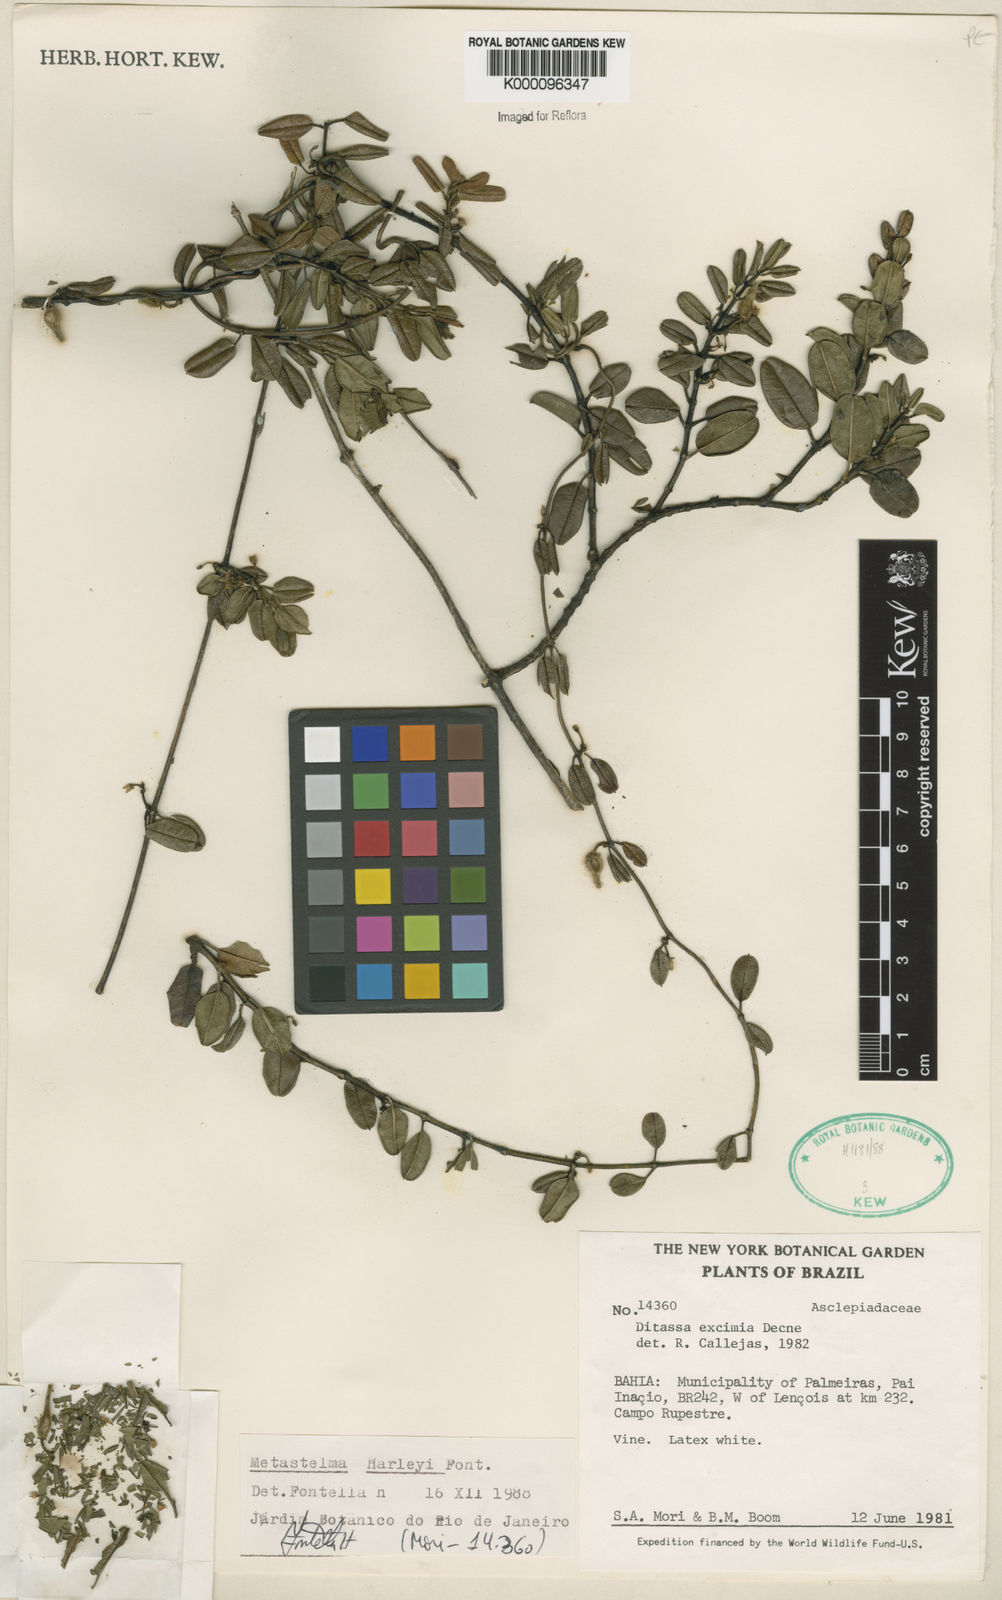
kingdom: Plantae
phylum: Tracheophyta
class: Magnoliopsida
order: Gentianales
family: Apocynaceae
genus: Metastelma
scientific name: Metastelma harleyi
